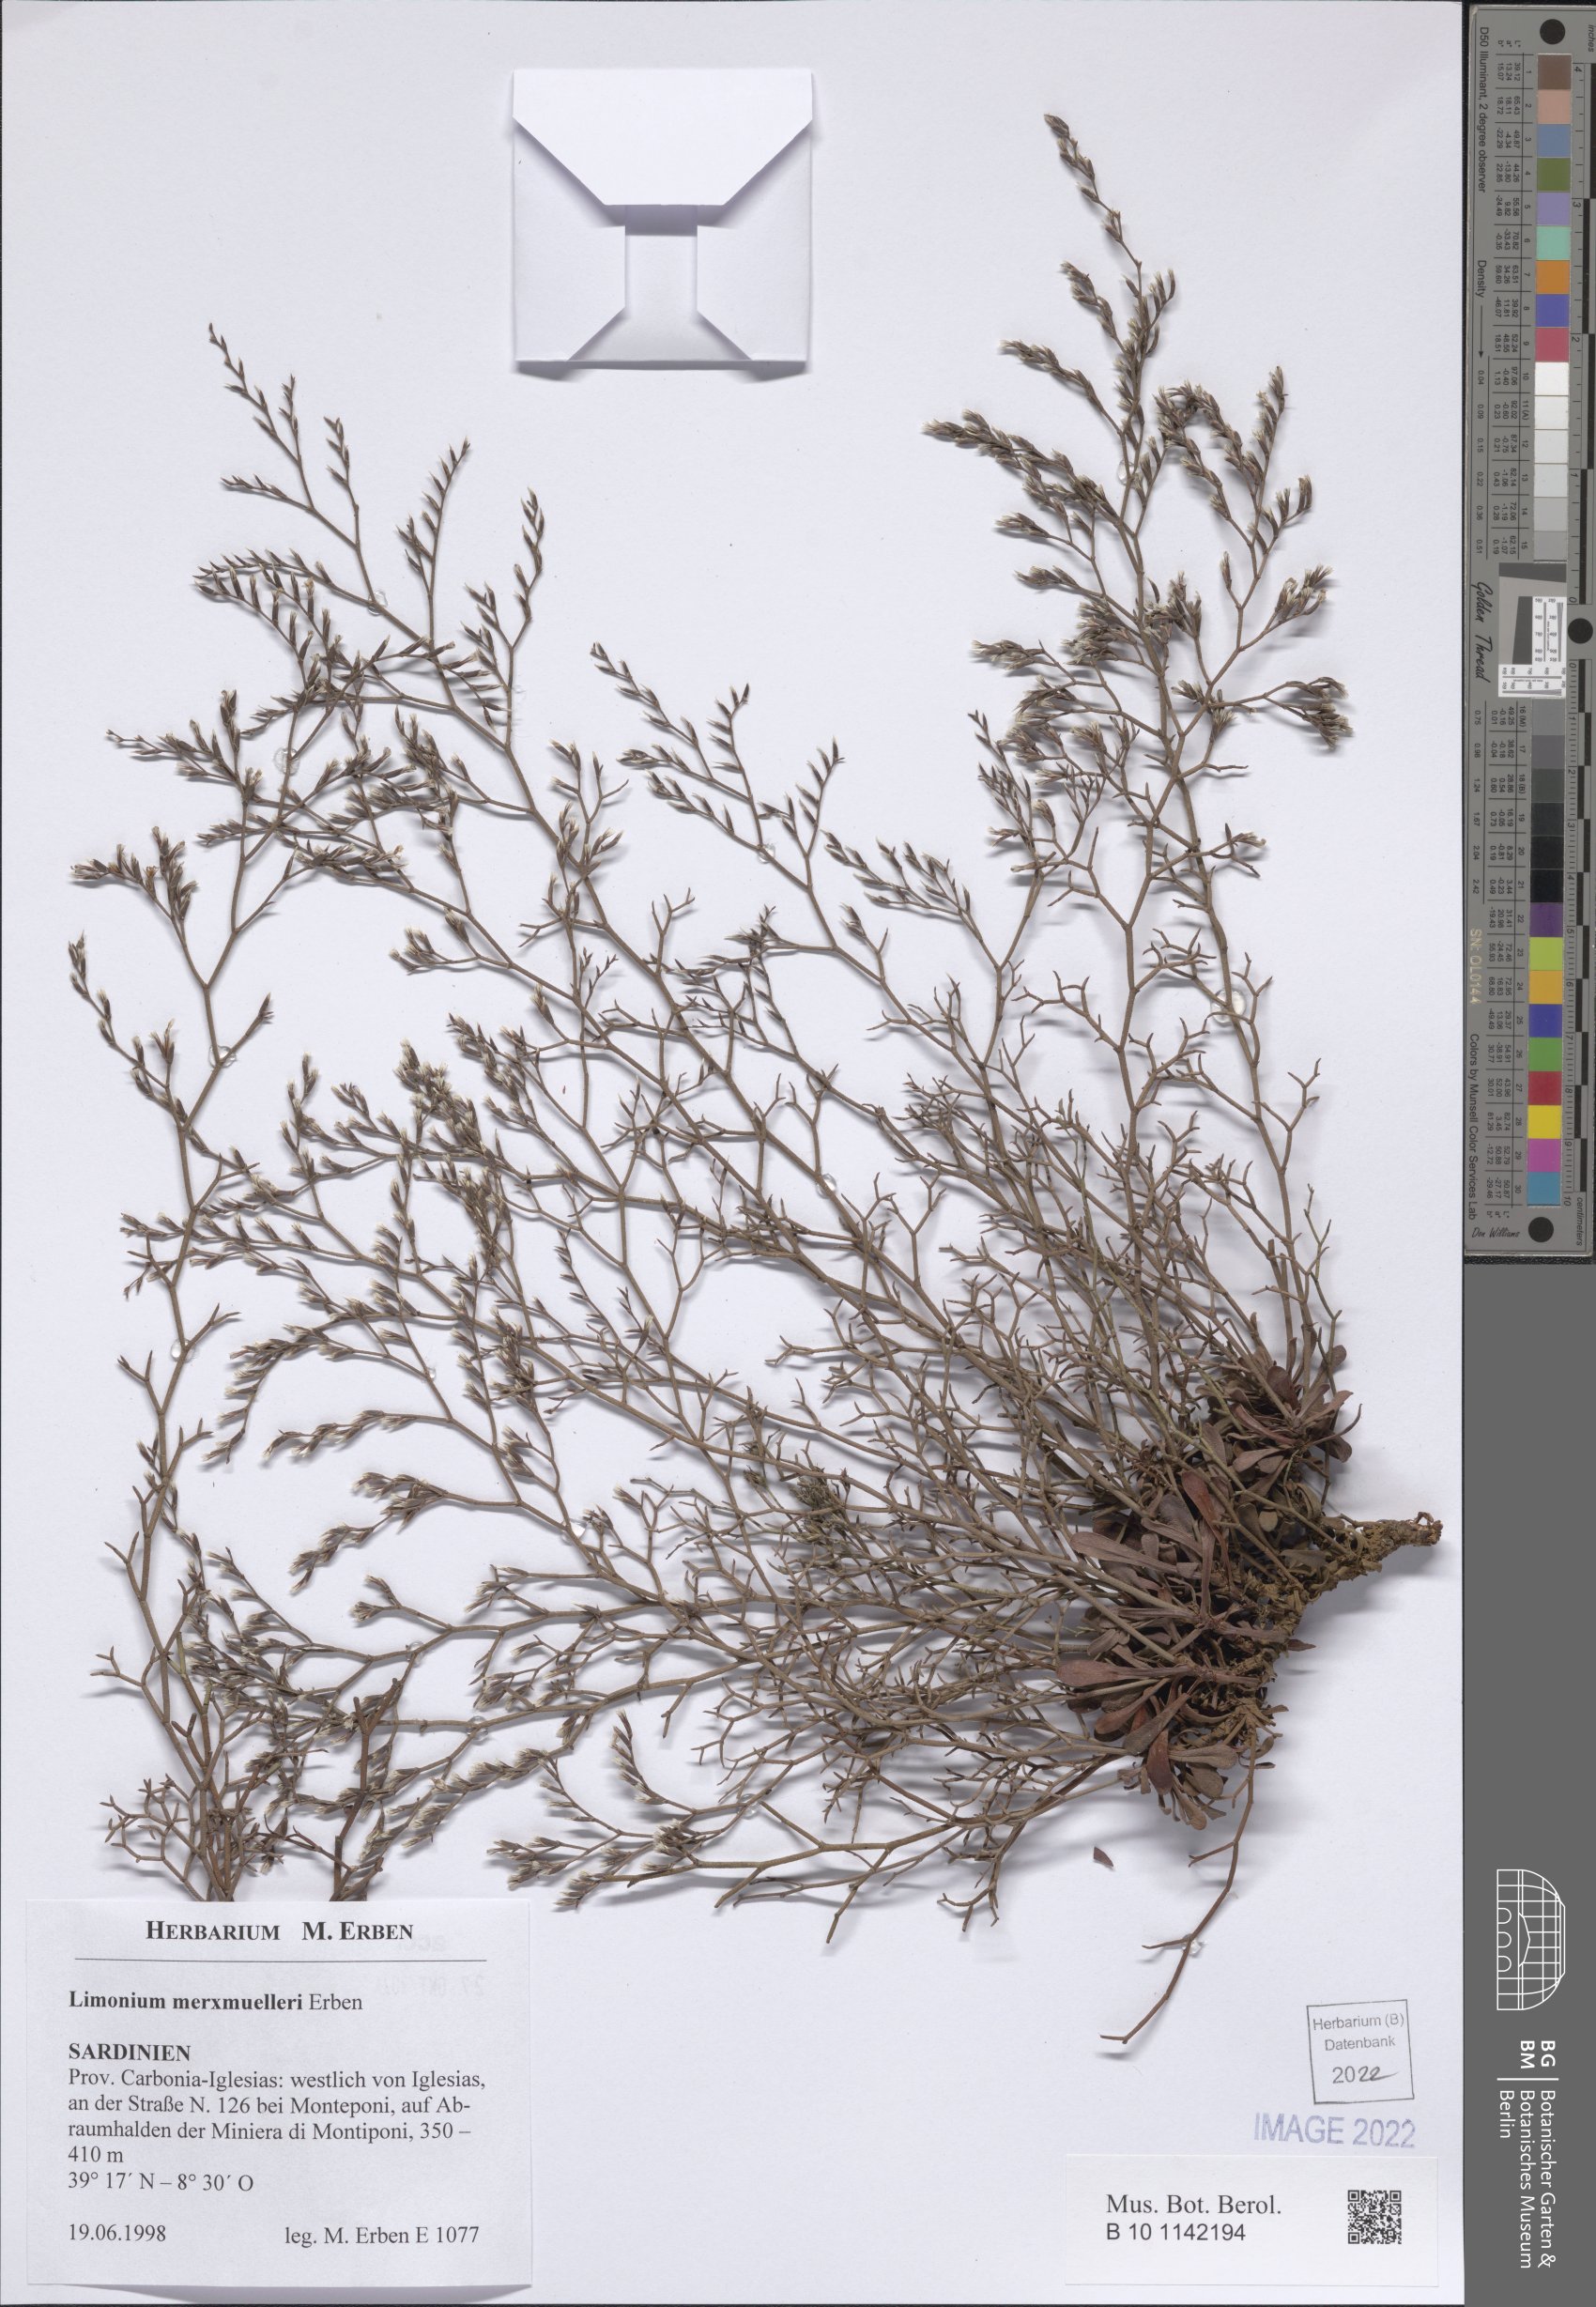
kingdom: Plantae
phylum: Tracheophyta
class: Magnoliopsida
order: Caryophyllales
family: Plumbaginaceae
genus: Limonium
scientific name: Limonium merxmuelleri
